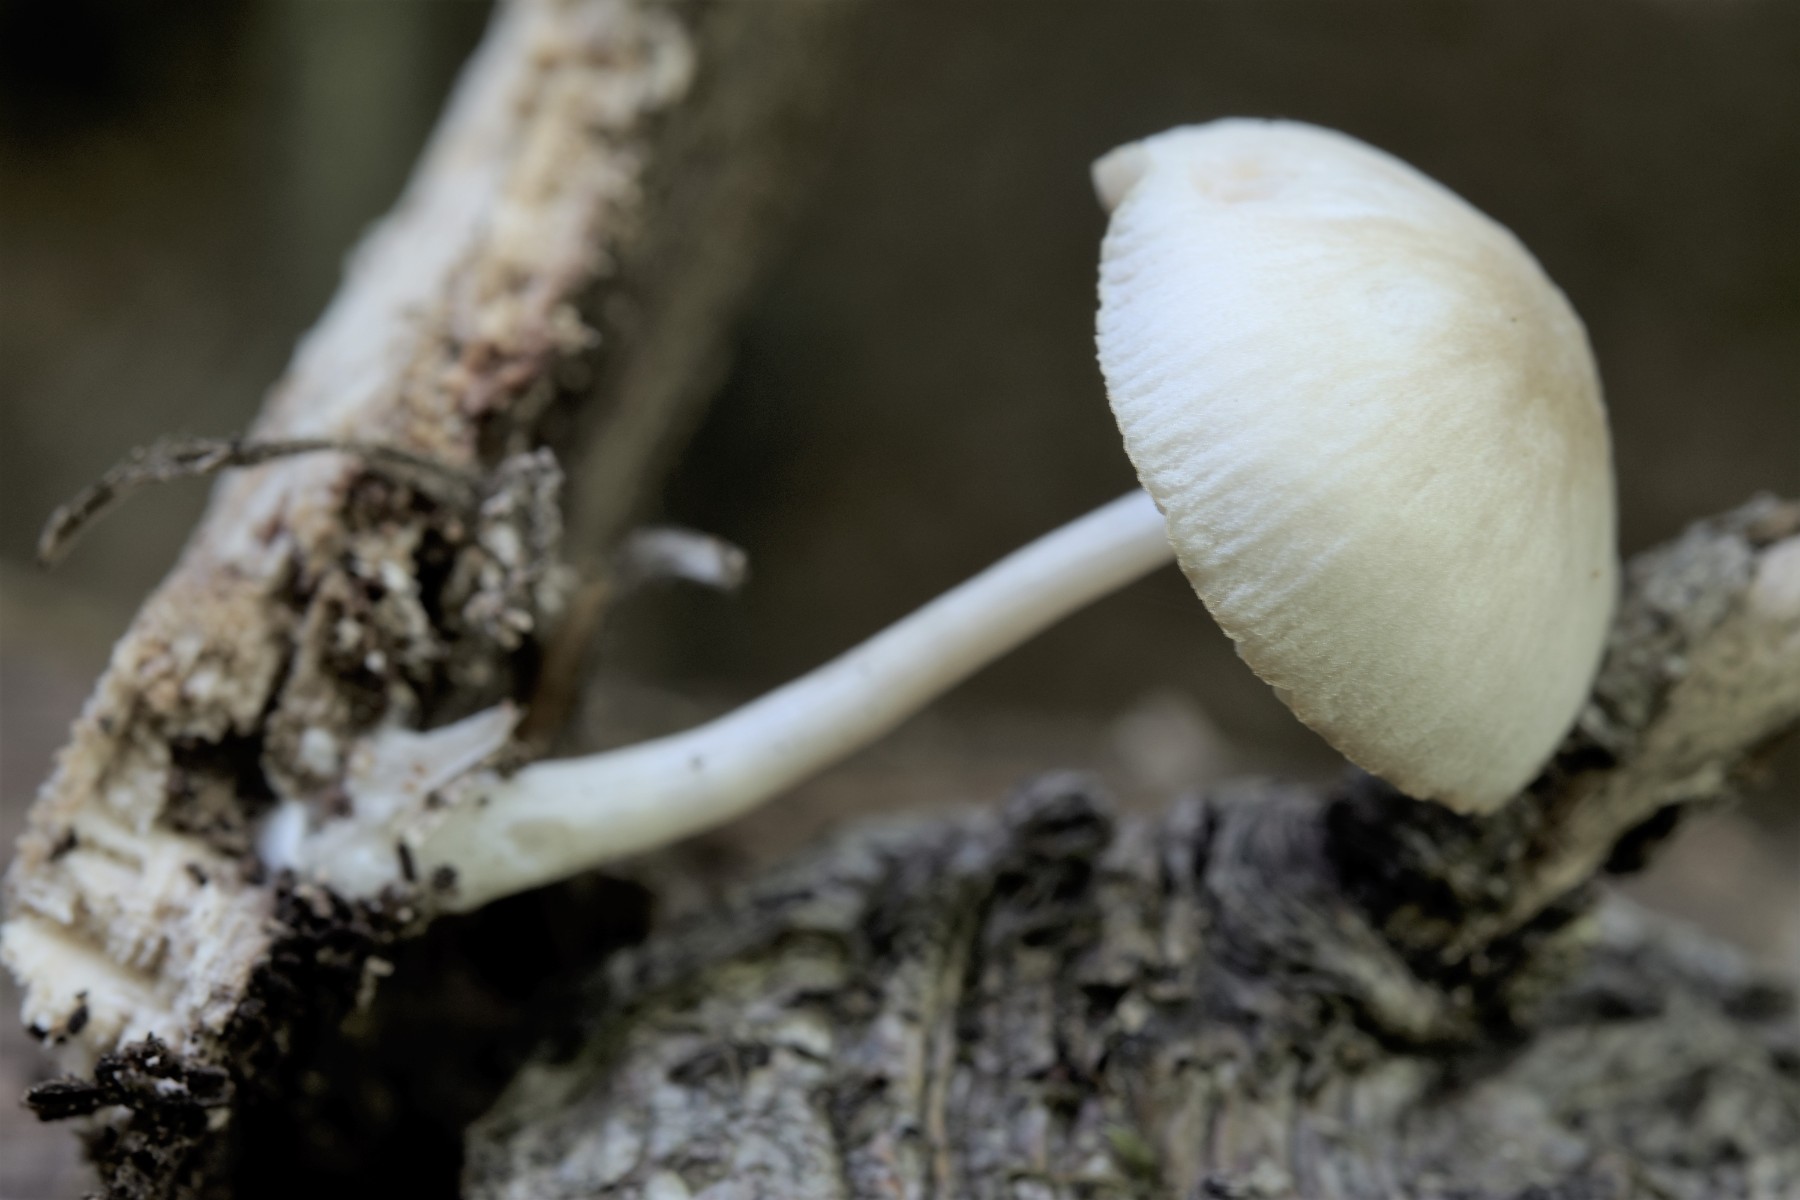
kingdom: Fungi
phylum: Basidiomycota
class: Agaricomycetes
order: Agaricales
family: Pluteaceae
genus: Pluteus
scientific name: Pluteus semibulbosus
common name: knoldet skærmhat
